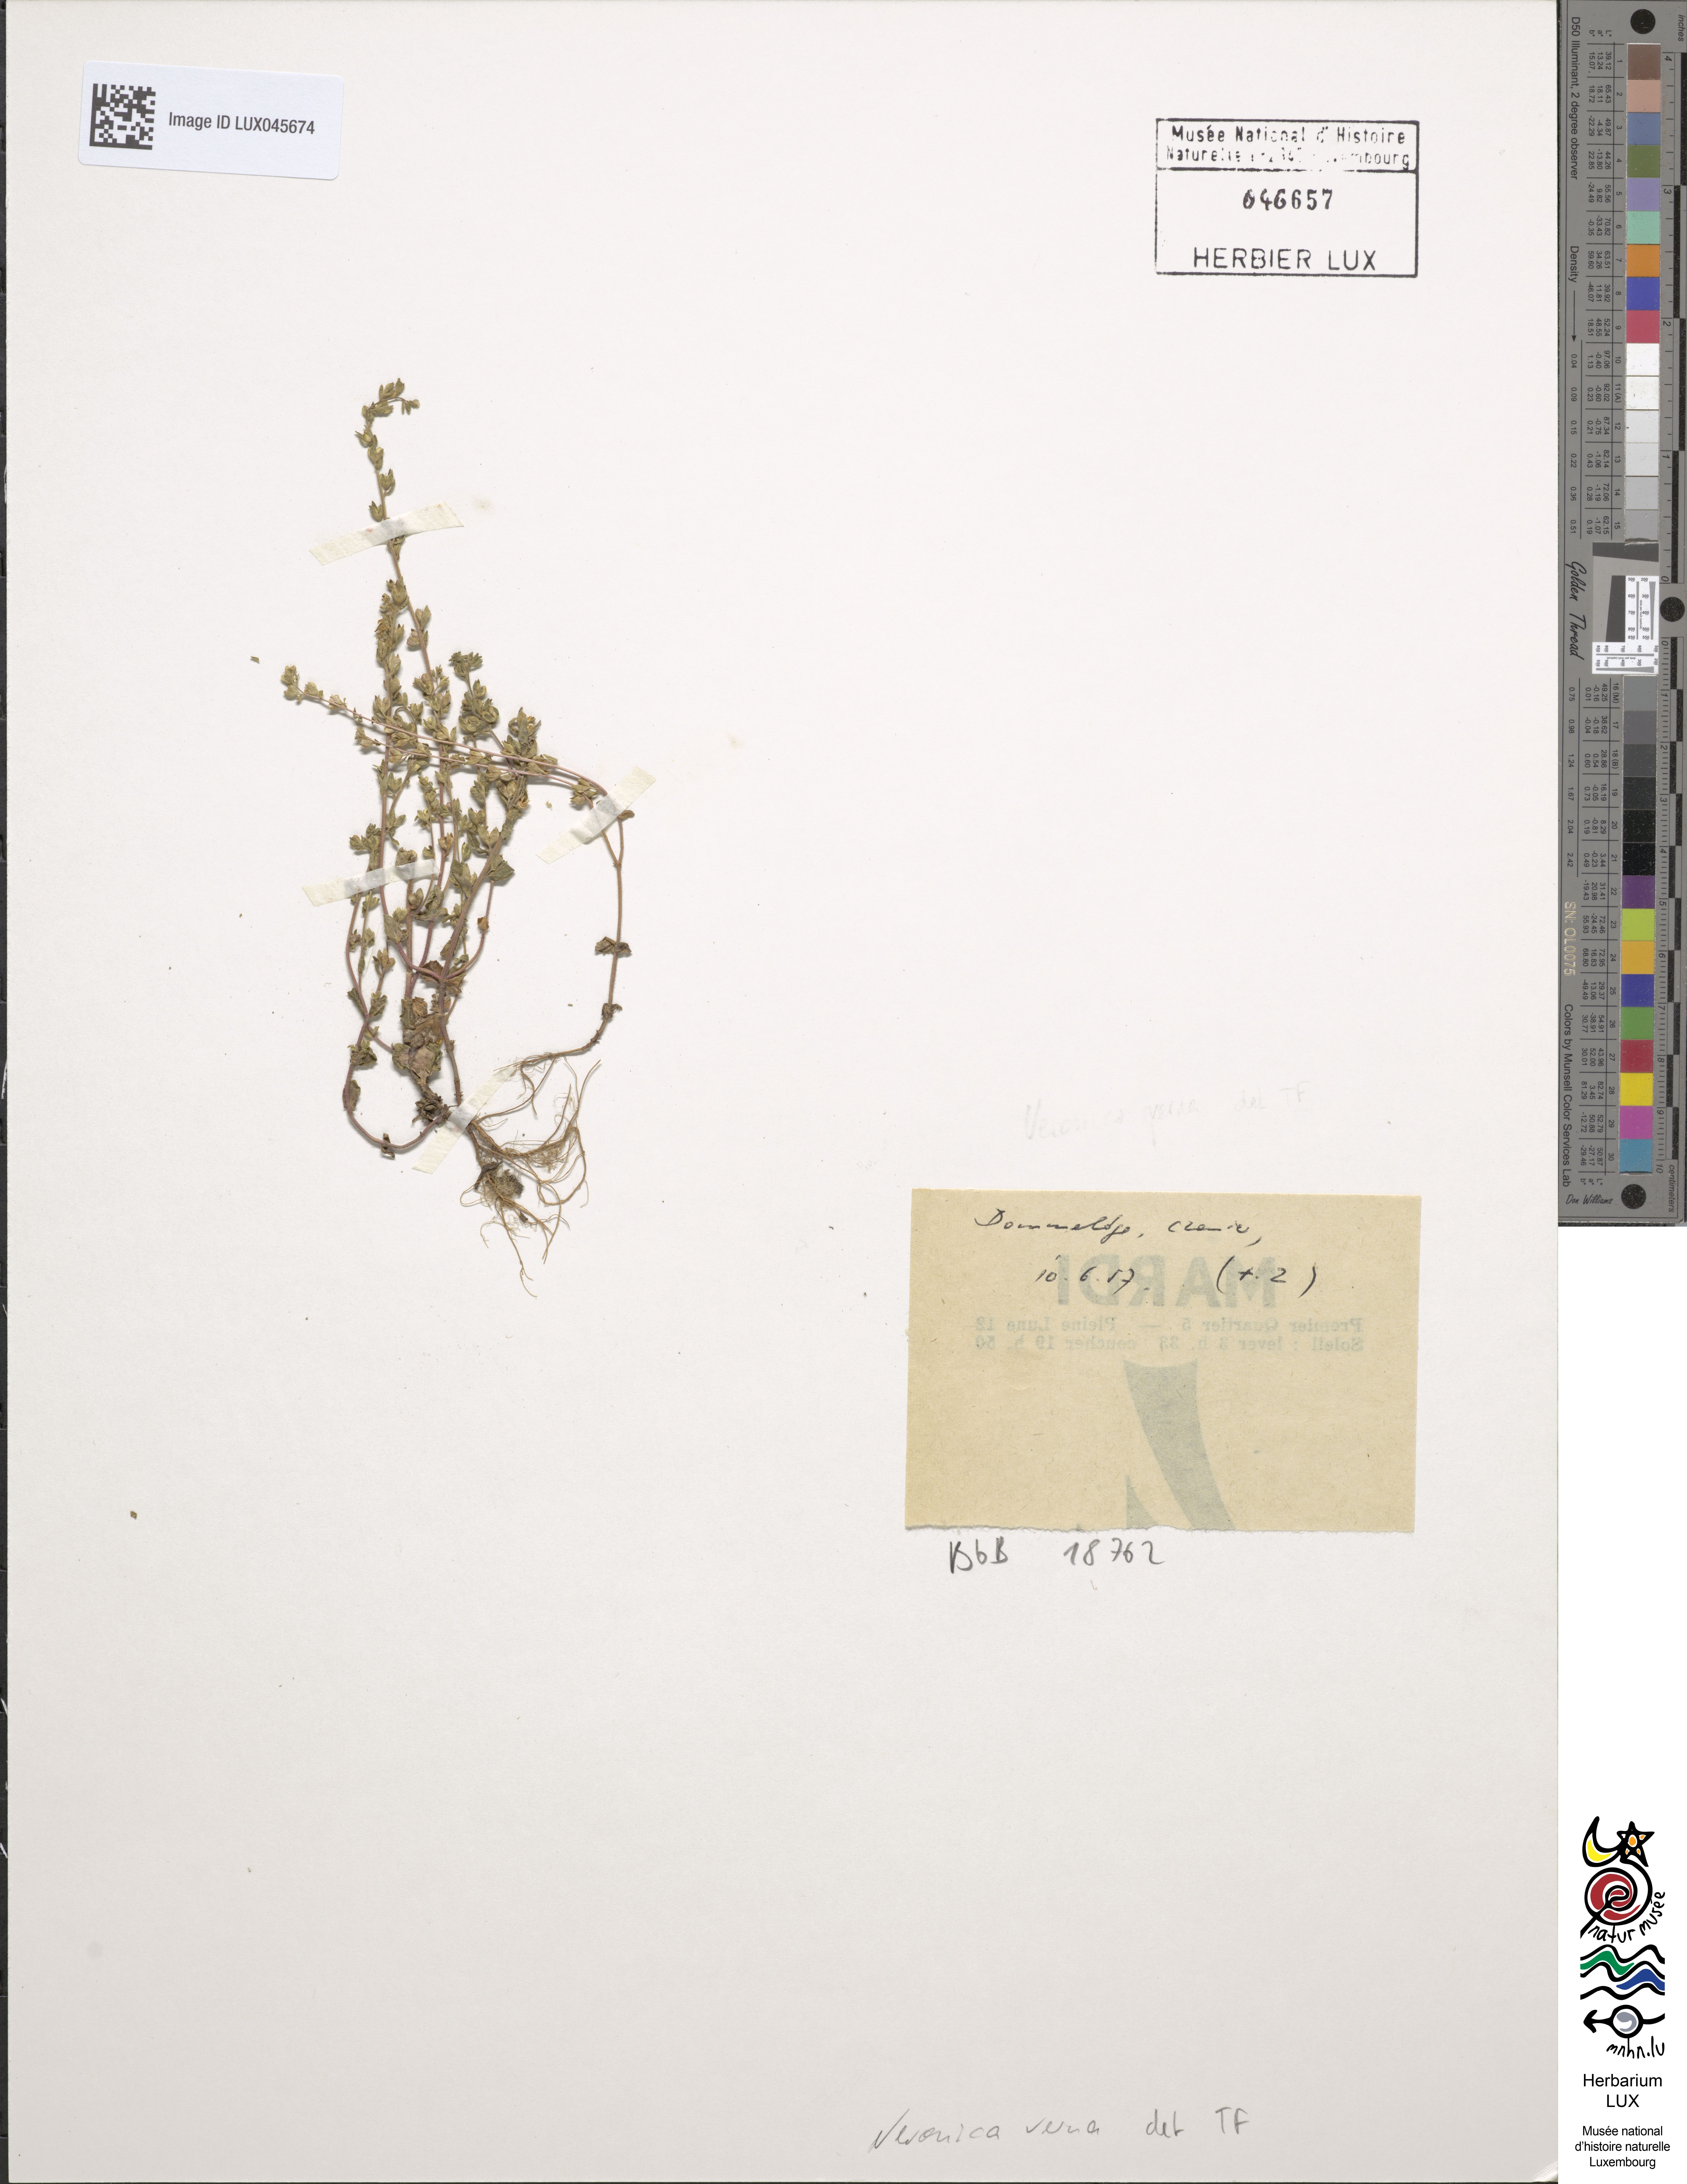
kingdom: Plantae
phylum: Tracheophyta
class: Magnoliopsida
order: Lamiales
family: Plantaginaceae
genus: Veronica
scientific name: Veronica verna
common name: Spring speedwell
